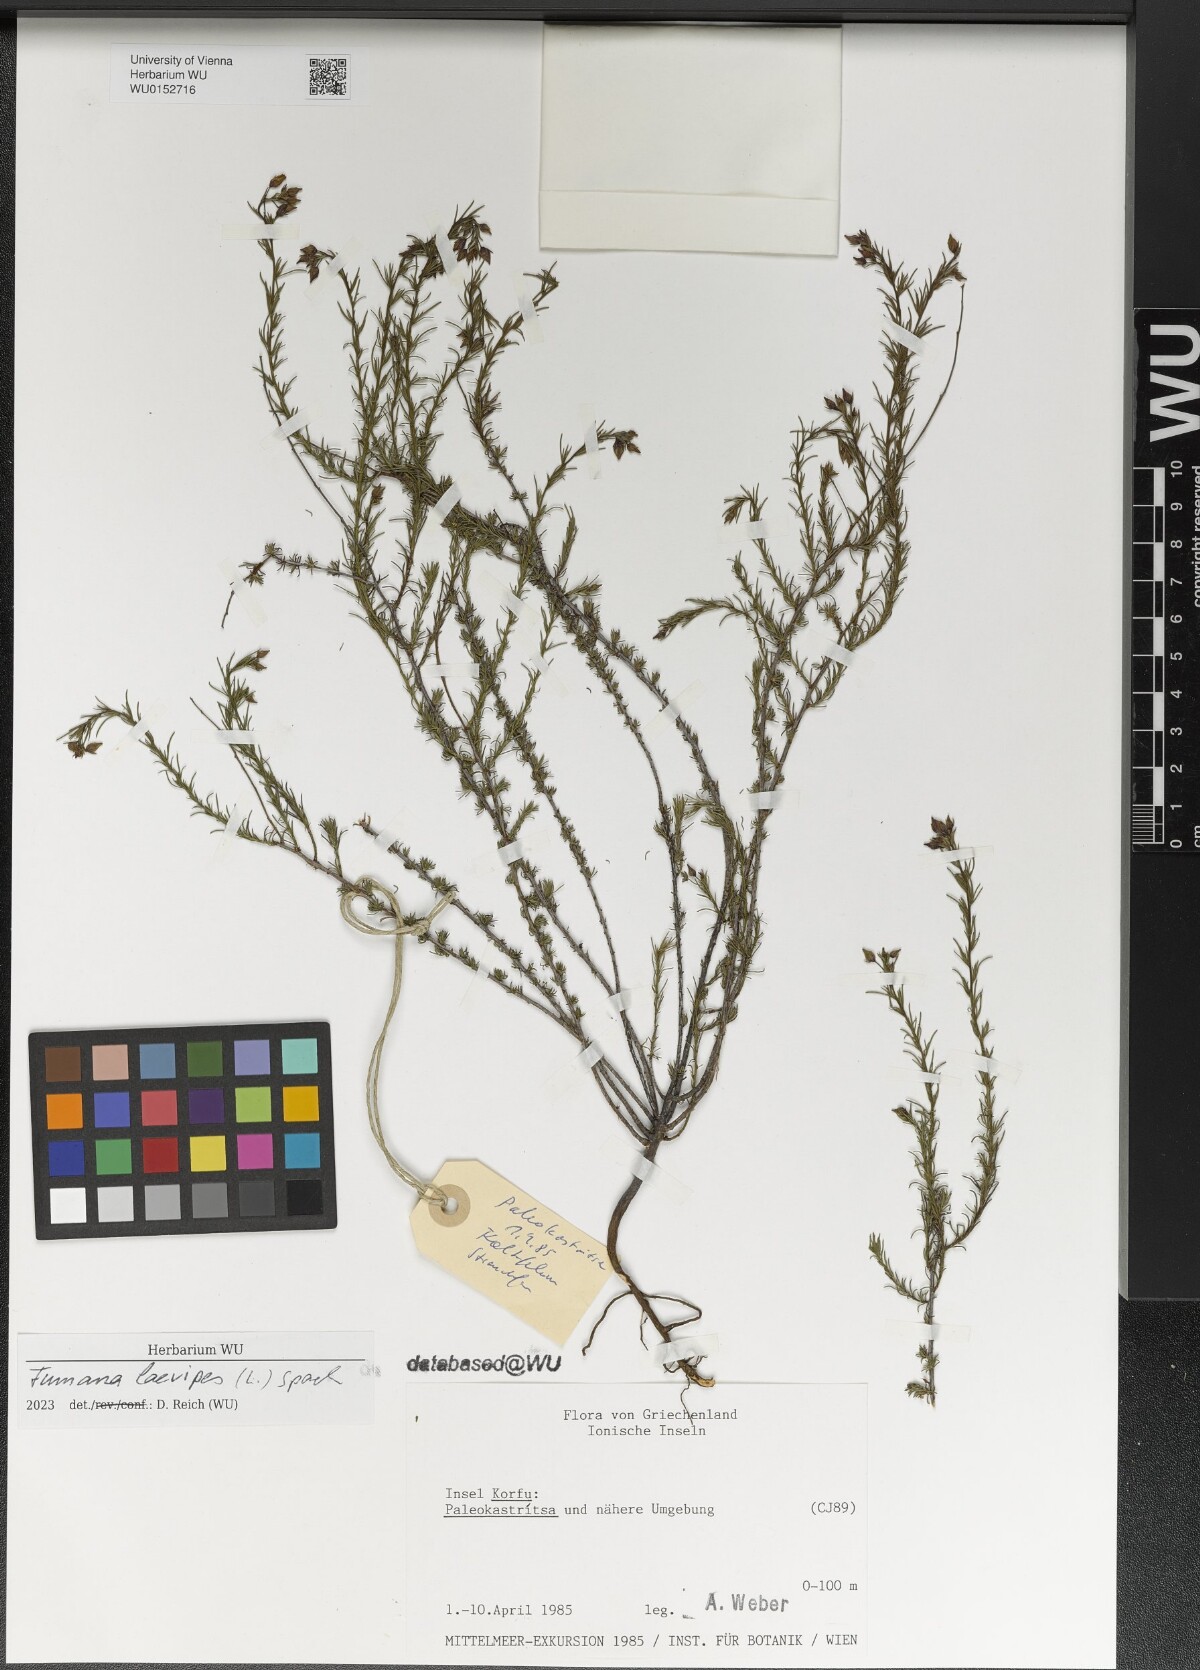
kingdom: Plantae
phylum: Tracheophyta
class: Magnoliopsida
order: Malvales
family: Cistaceae
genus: Fumana
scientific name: Fumana laevipes
